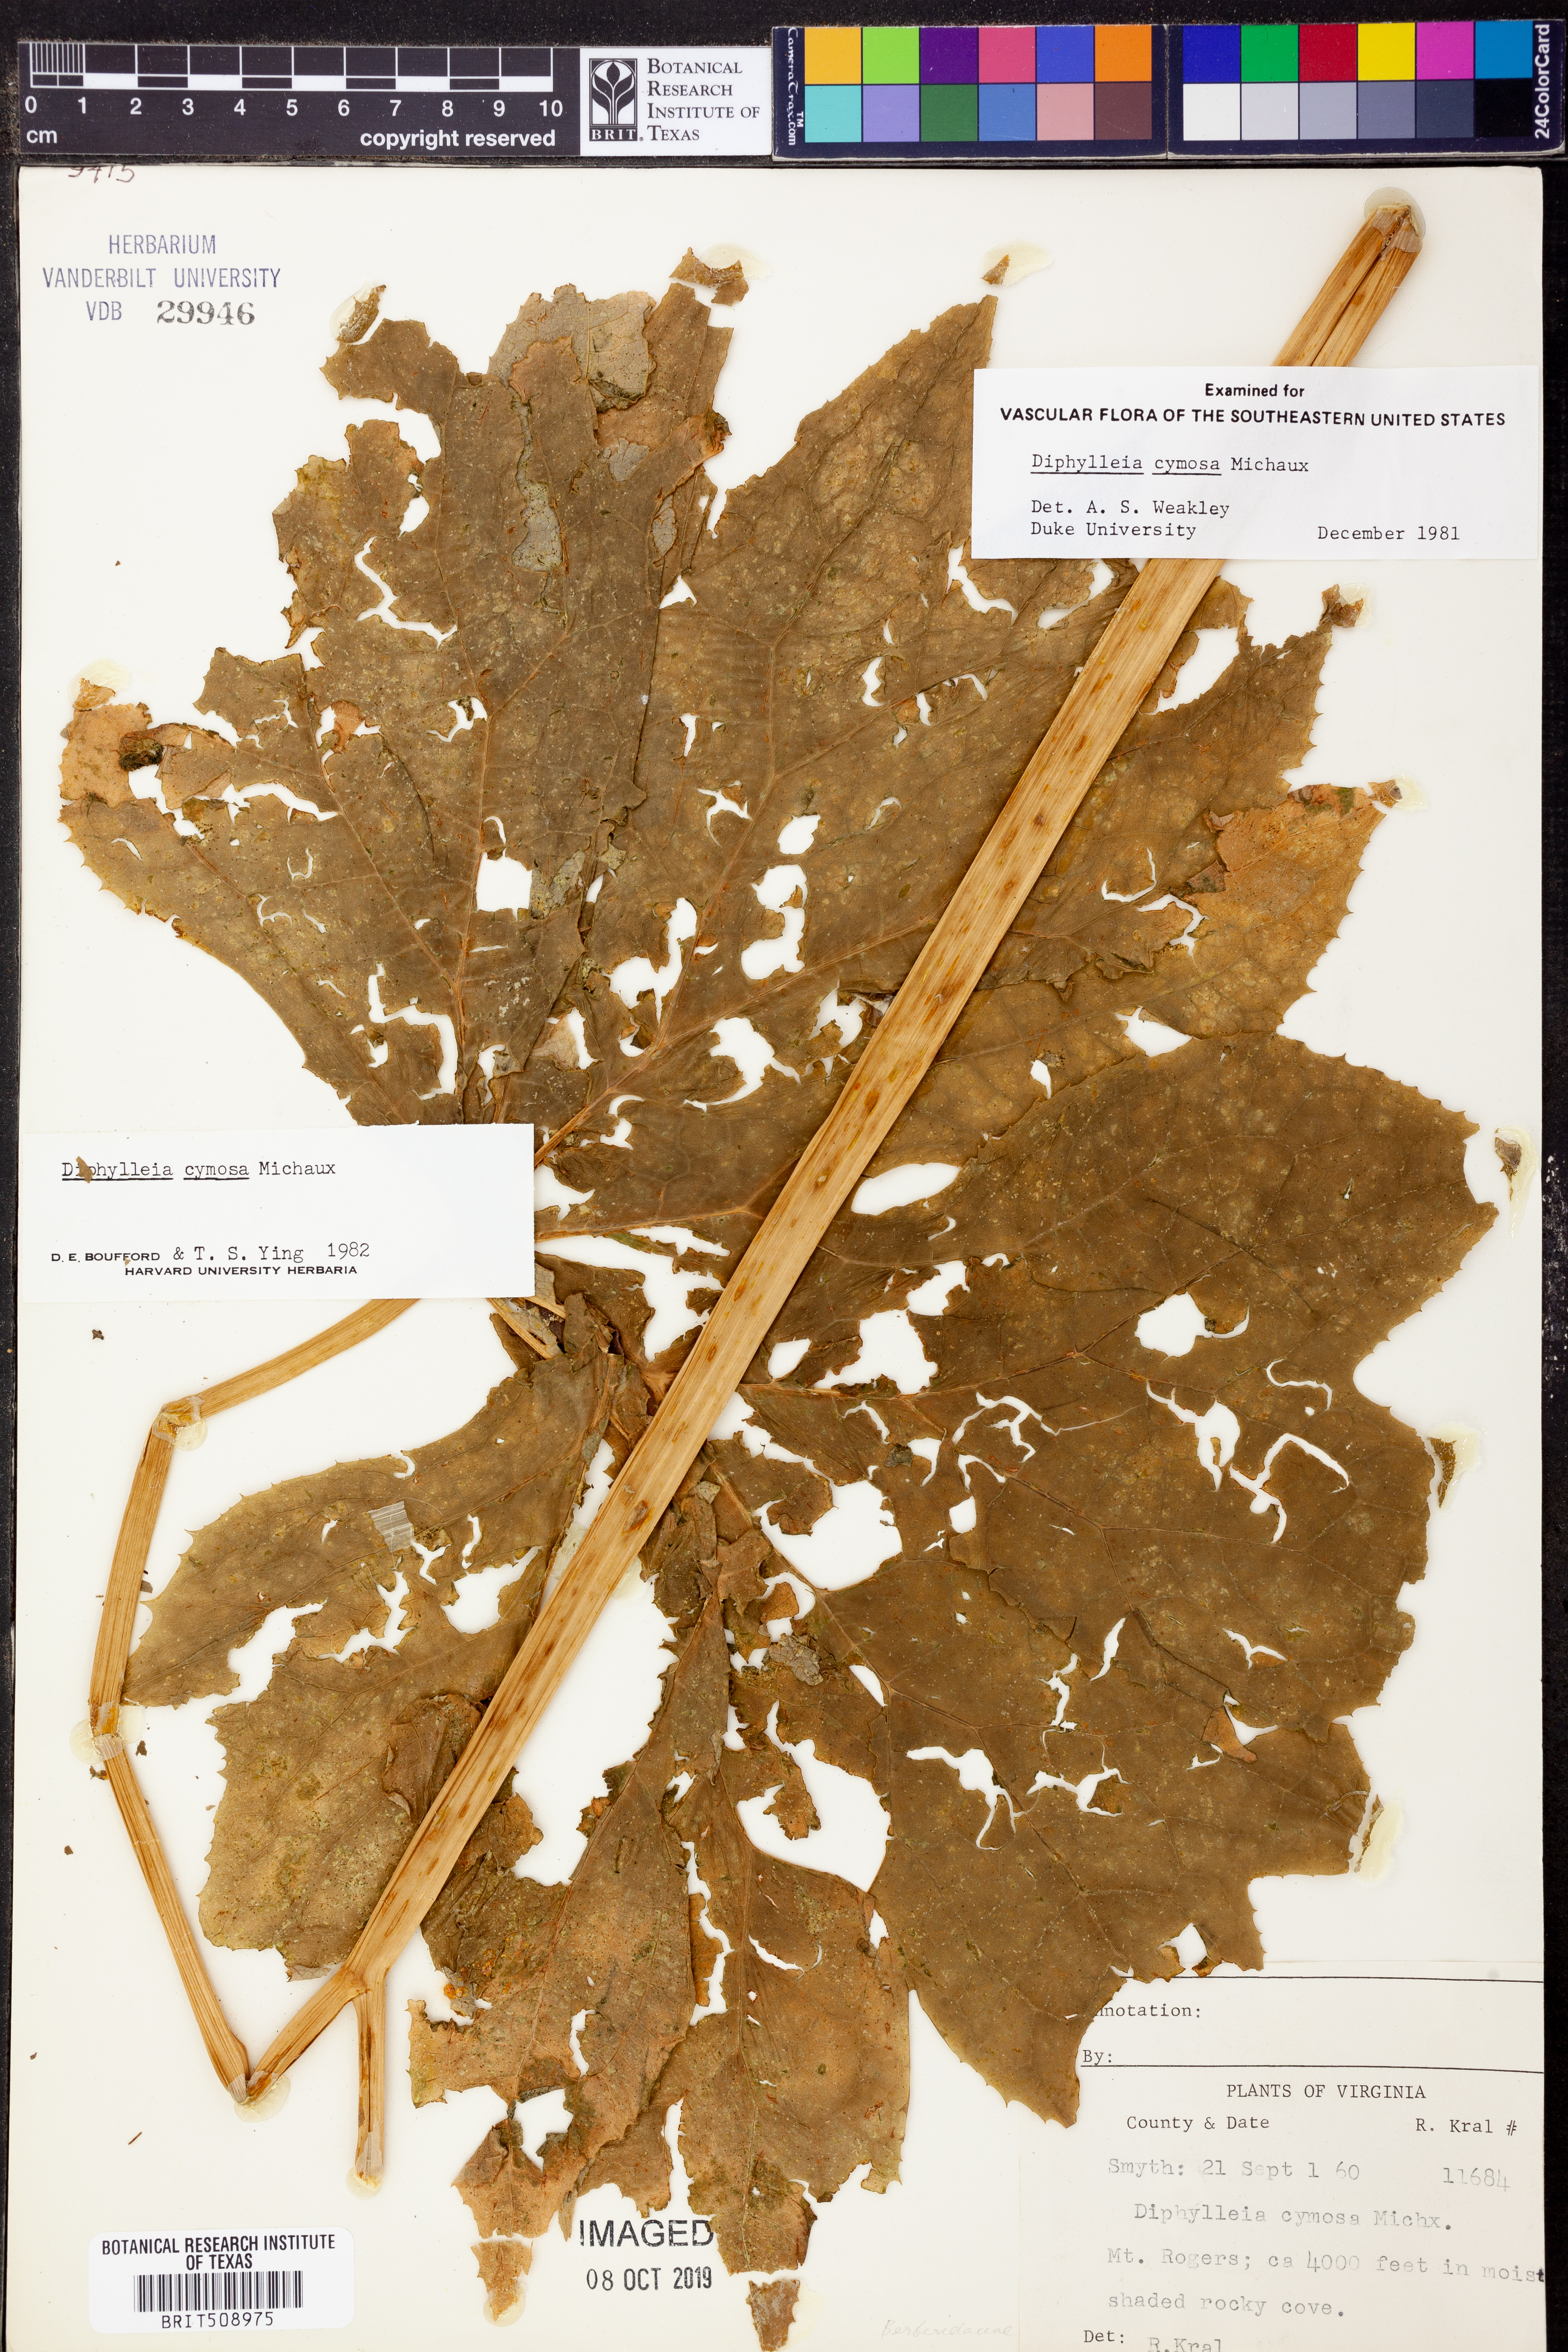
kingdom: Plantae
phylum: Tracheophyta
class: Magnoliopsida
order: Ranunculales
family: Berberidaceae
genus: Diphylleia
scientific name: Diphylleia cymosa
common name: Umbrella-leaf
